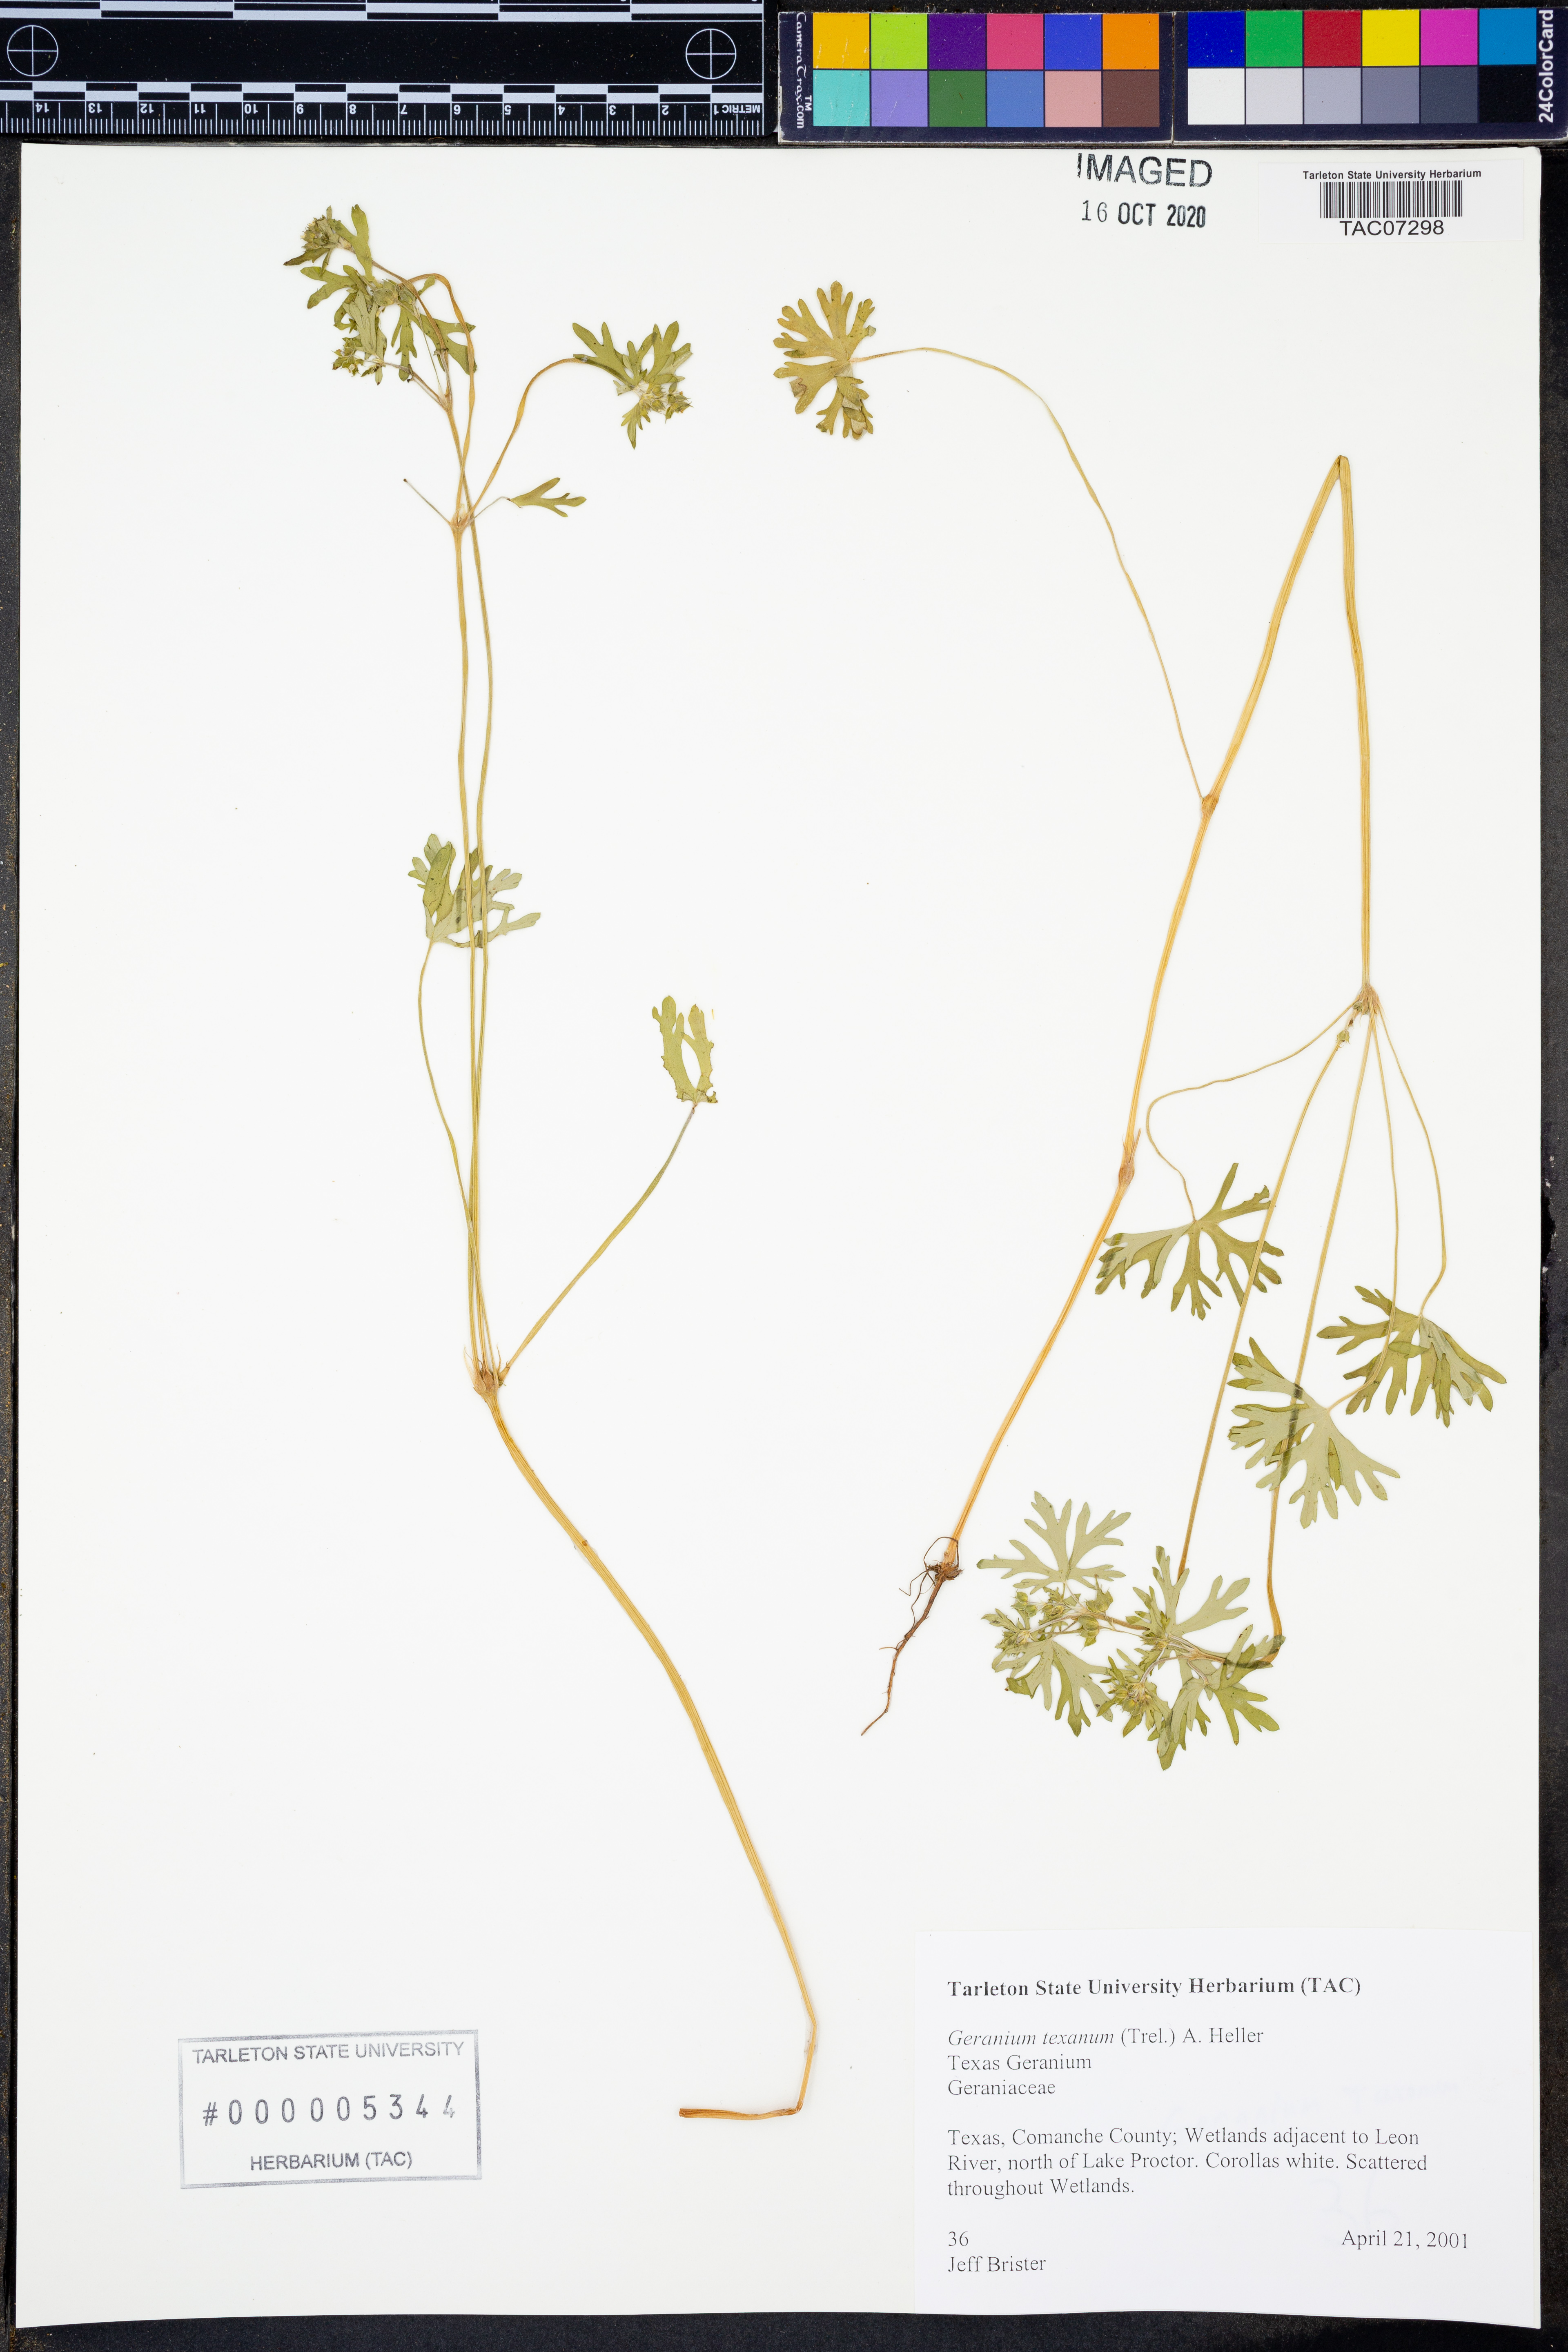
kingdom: Plantae
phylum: Tracheophyta
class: Magnoliopsida
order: Geraniales
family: Geraniaceae
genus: Geranium
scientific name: Geranium texanum
